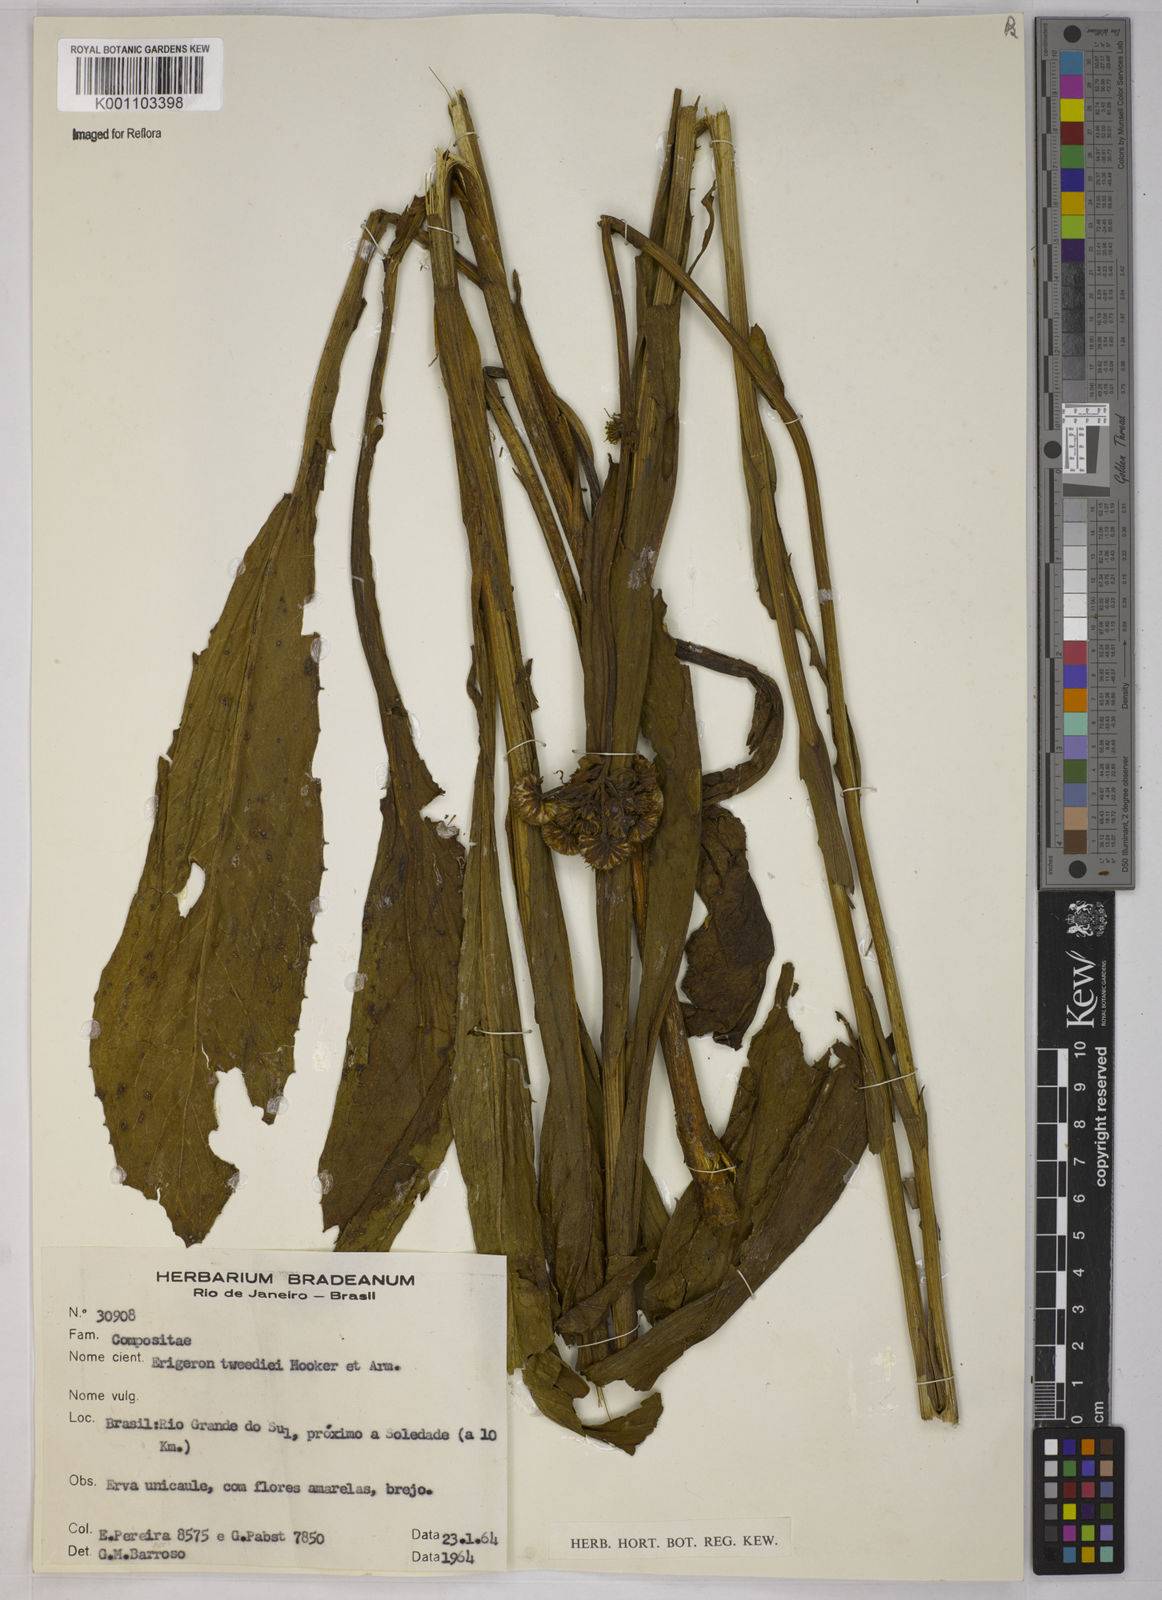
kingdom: Plantae
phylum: Tracheophyta
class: Magnoliopsida
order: Asterales
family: Asteraceae
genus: Leptostelma
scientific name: Leptostelma tweediei
